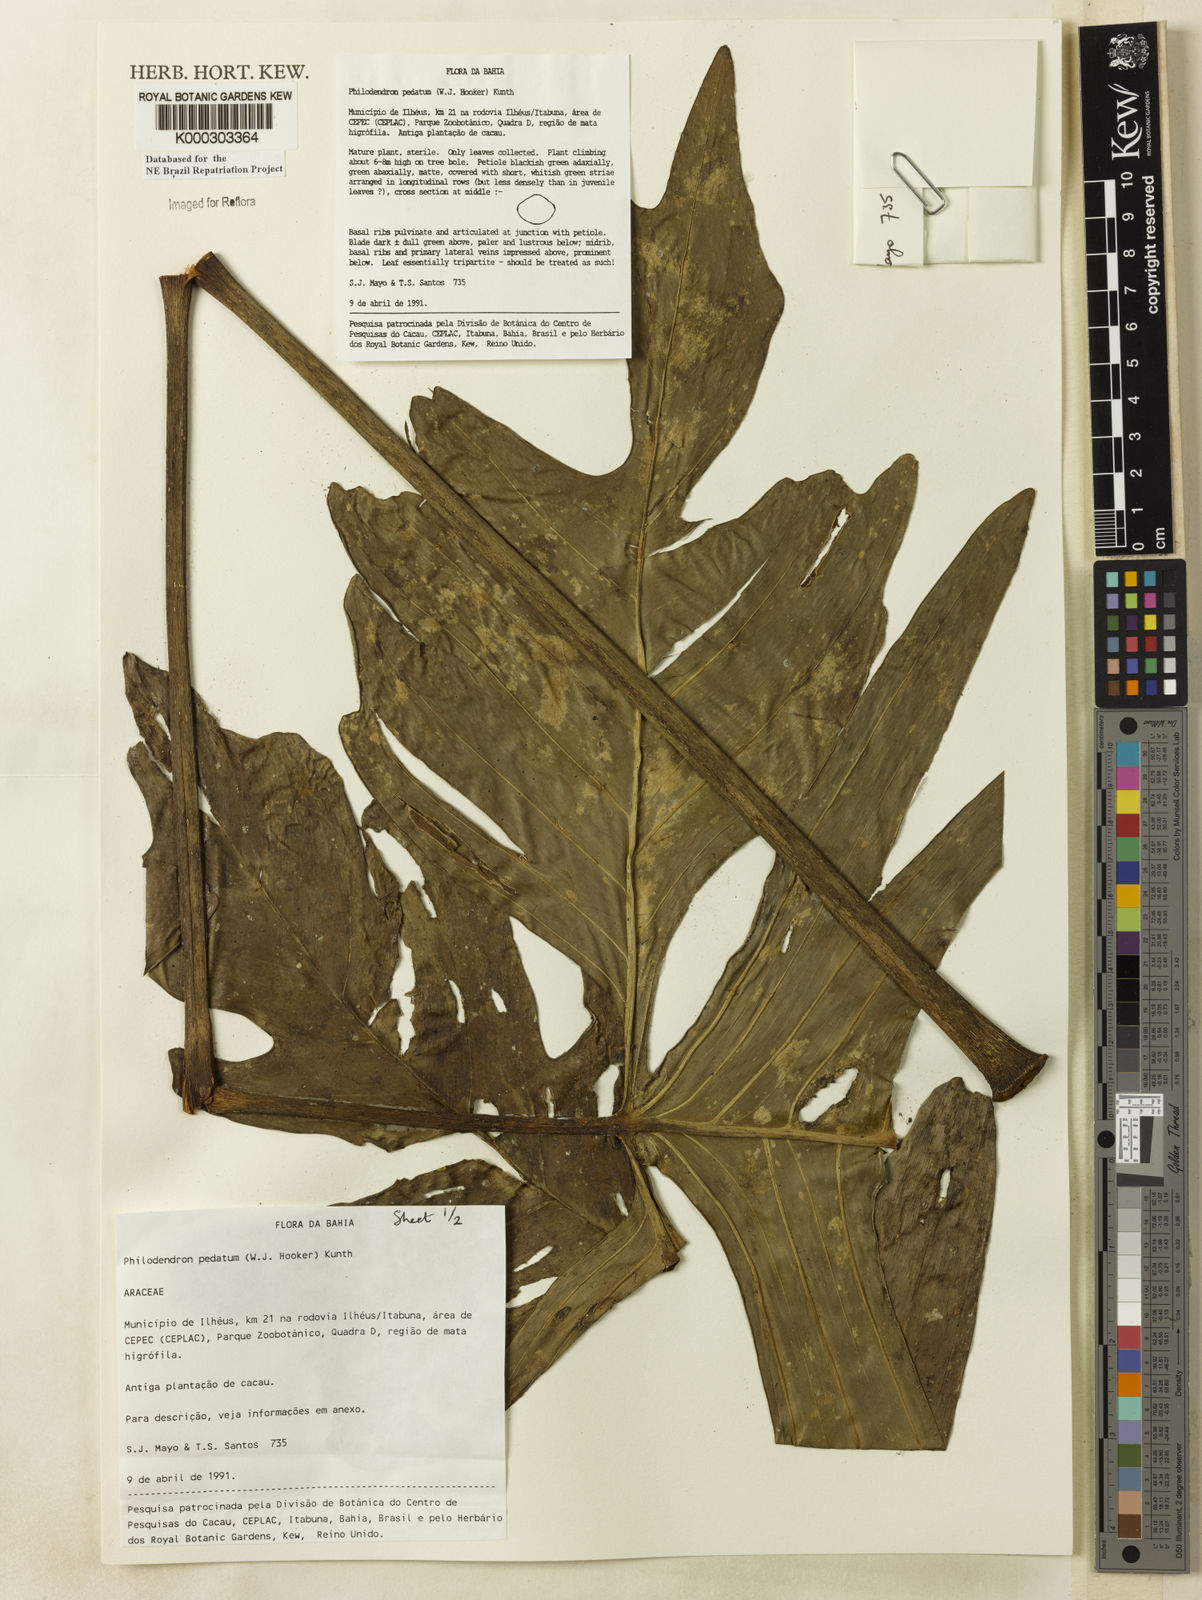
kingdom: Plantae
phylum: Tracheophyta
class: Liliopsida
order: Alismatales
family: Araceae
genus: Philodendron
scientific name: Philodendron pedatum
